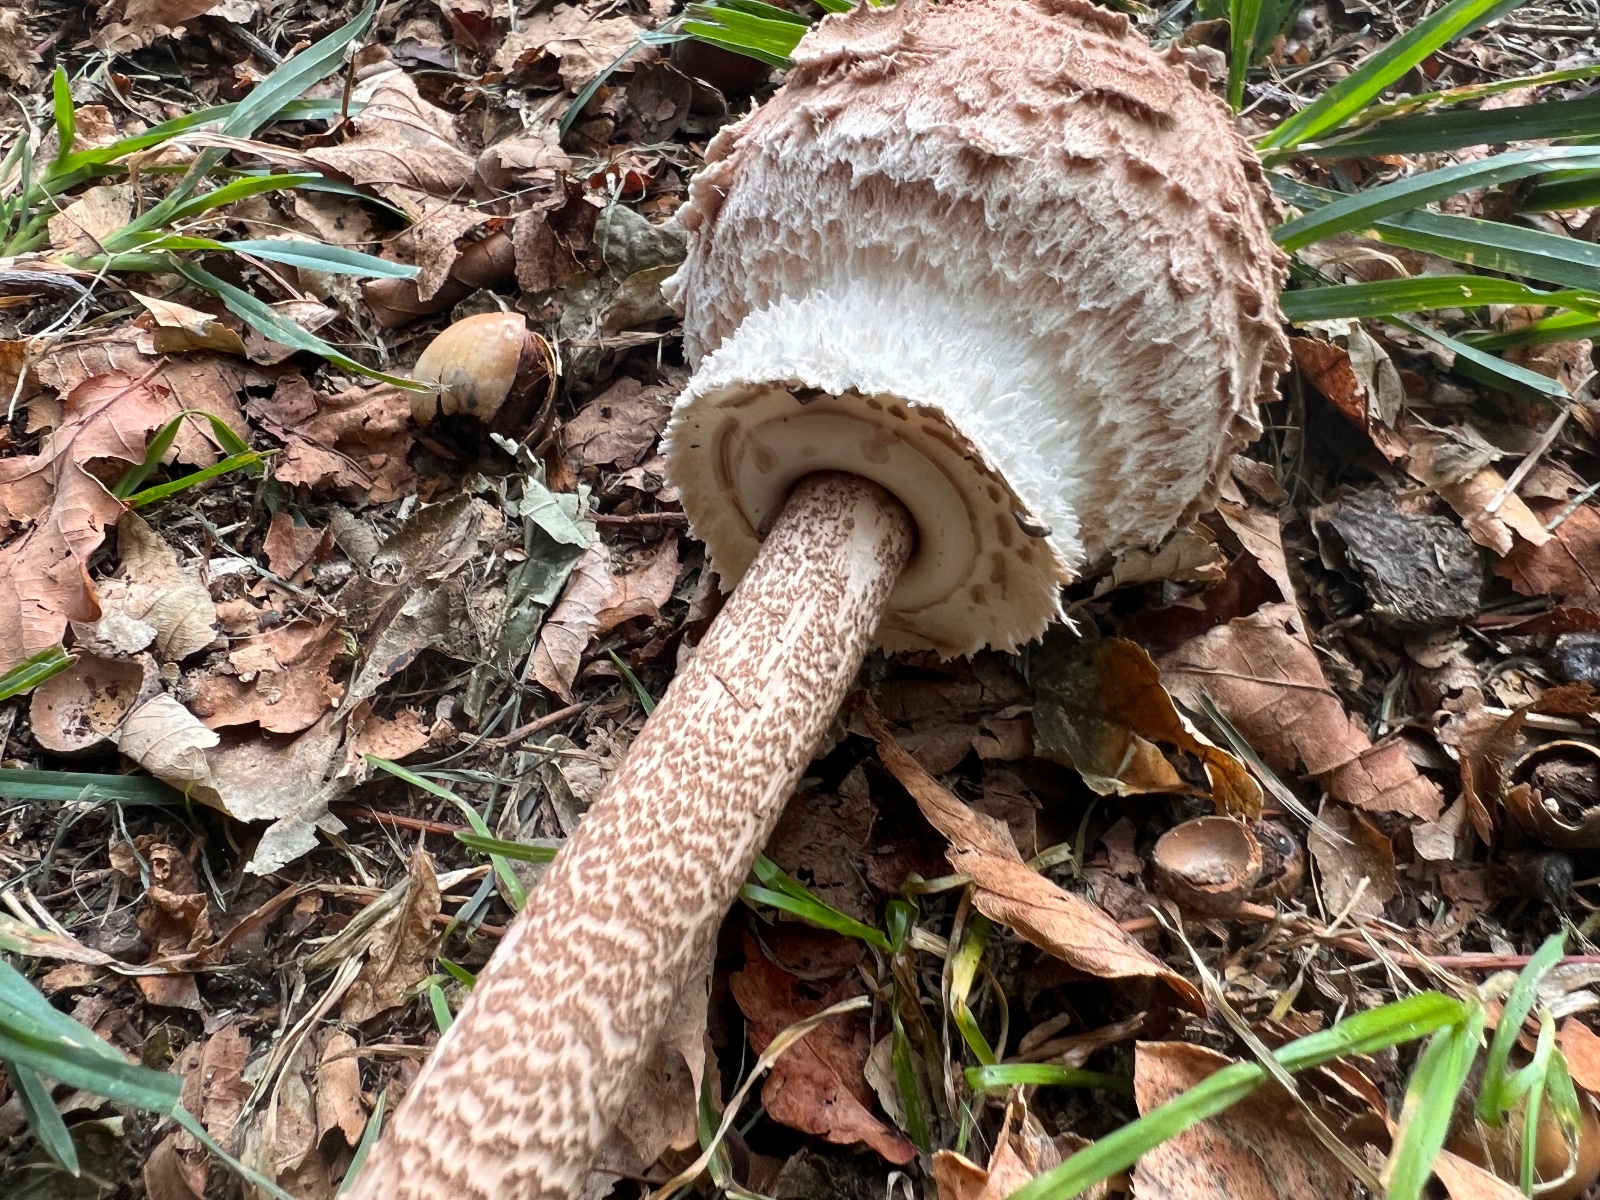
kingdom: Fungi
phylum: Basidiomycota
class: Agaricomycetes
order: Agaricales
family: Agaricaceae
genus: Macrolepiota
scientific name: Macrolepiota procera
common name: stor kæmpeparasolhat
